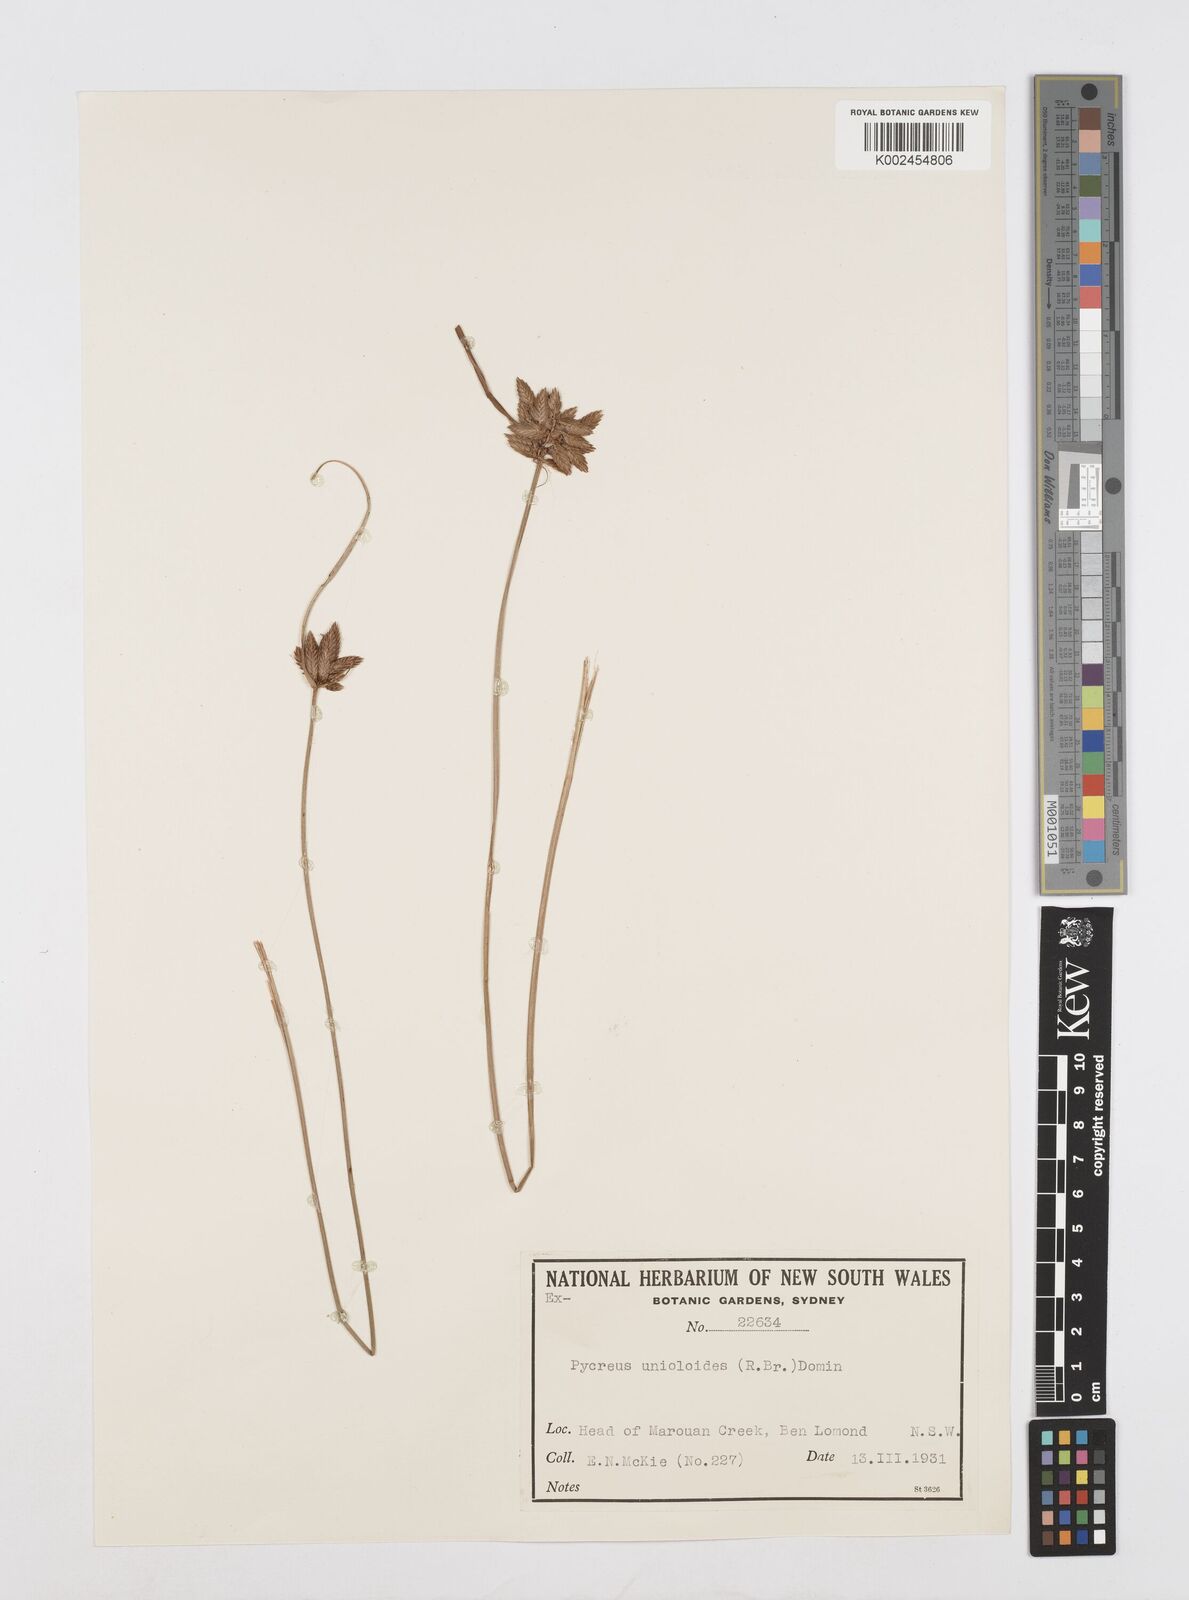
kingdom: Plantae
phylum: Tracheophyta
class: Liliopsida
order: Poales
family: Cyperaceae
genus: Cyperus
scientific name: Cyperus unioloides
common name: Uniola flatsedge
